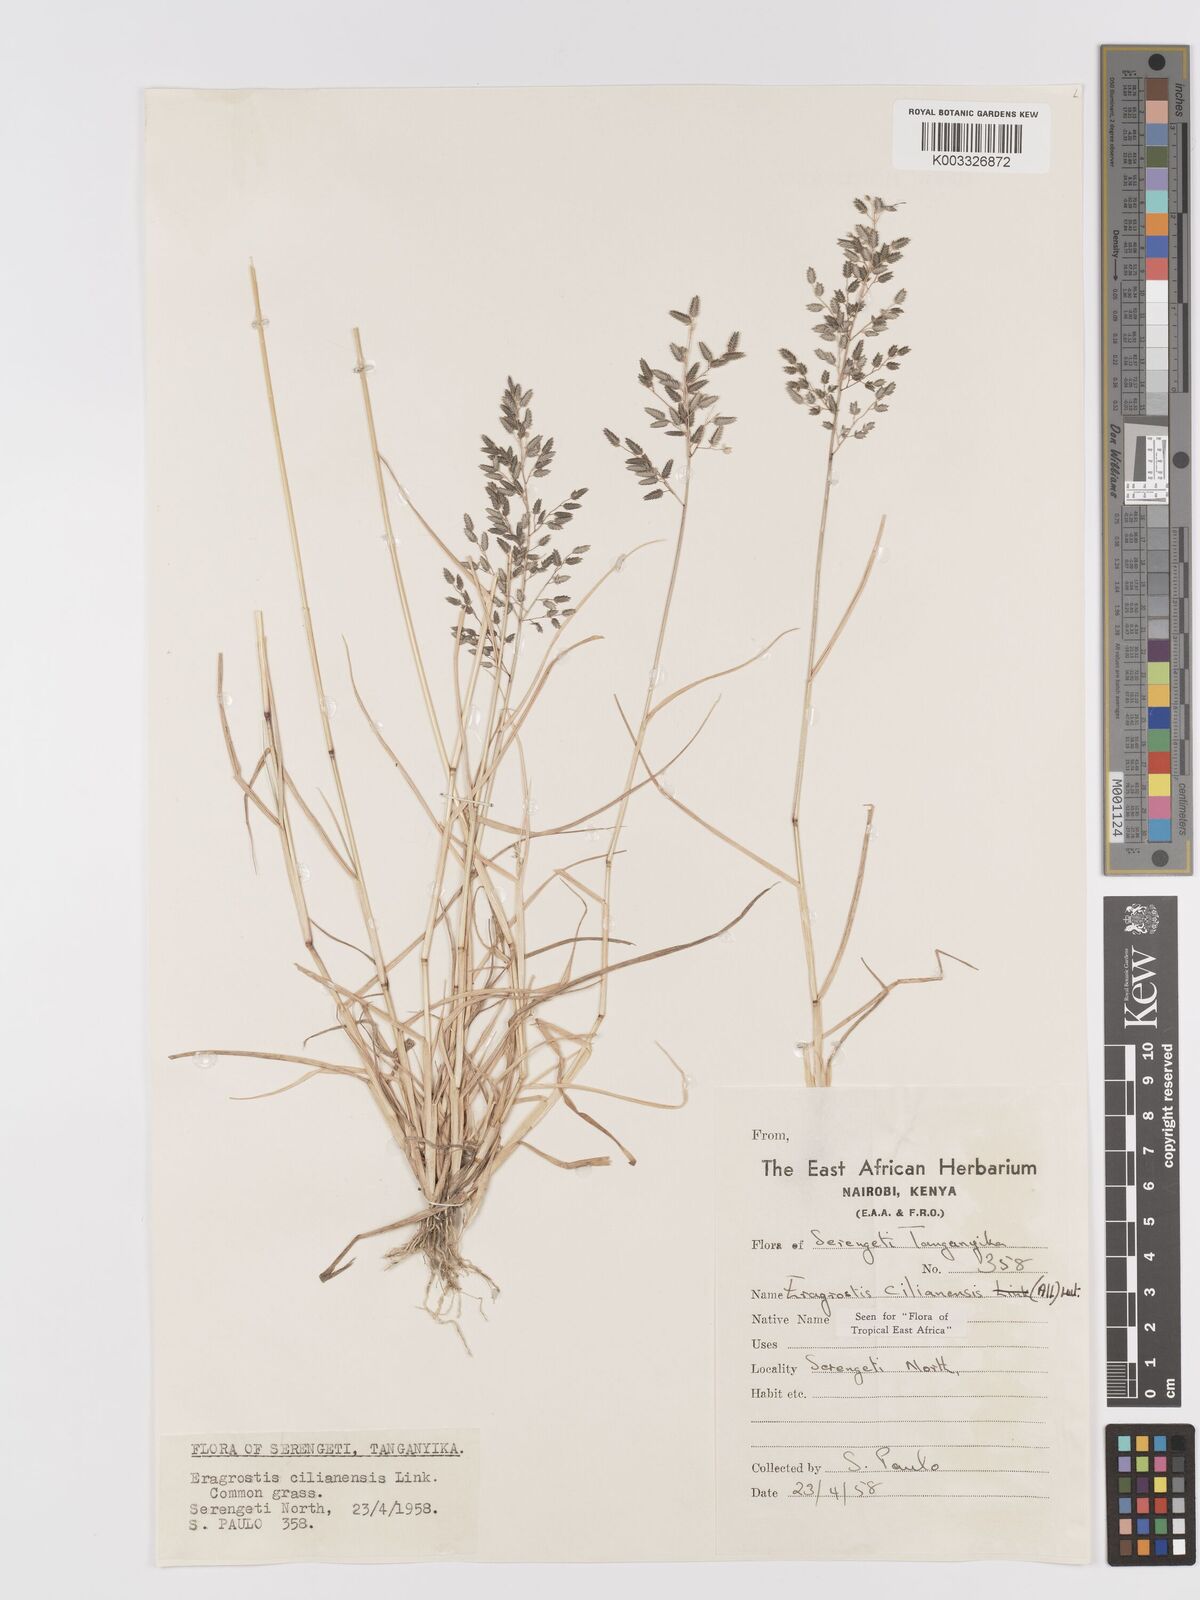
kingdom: Plantae
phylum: Tracheophyta
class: Liliopsida
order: Poales
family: Poaceae
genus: Eragrostis
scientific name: Eragrostis cilianensis
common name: Stinkgrass
